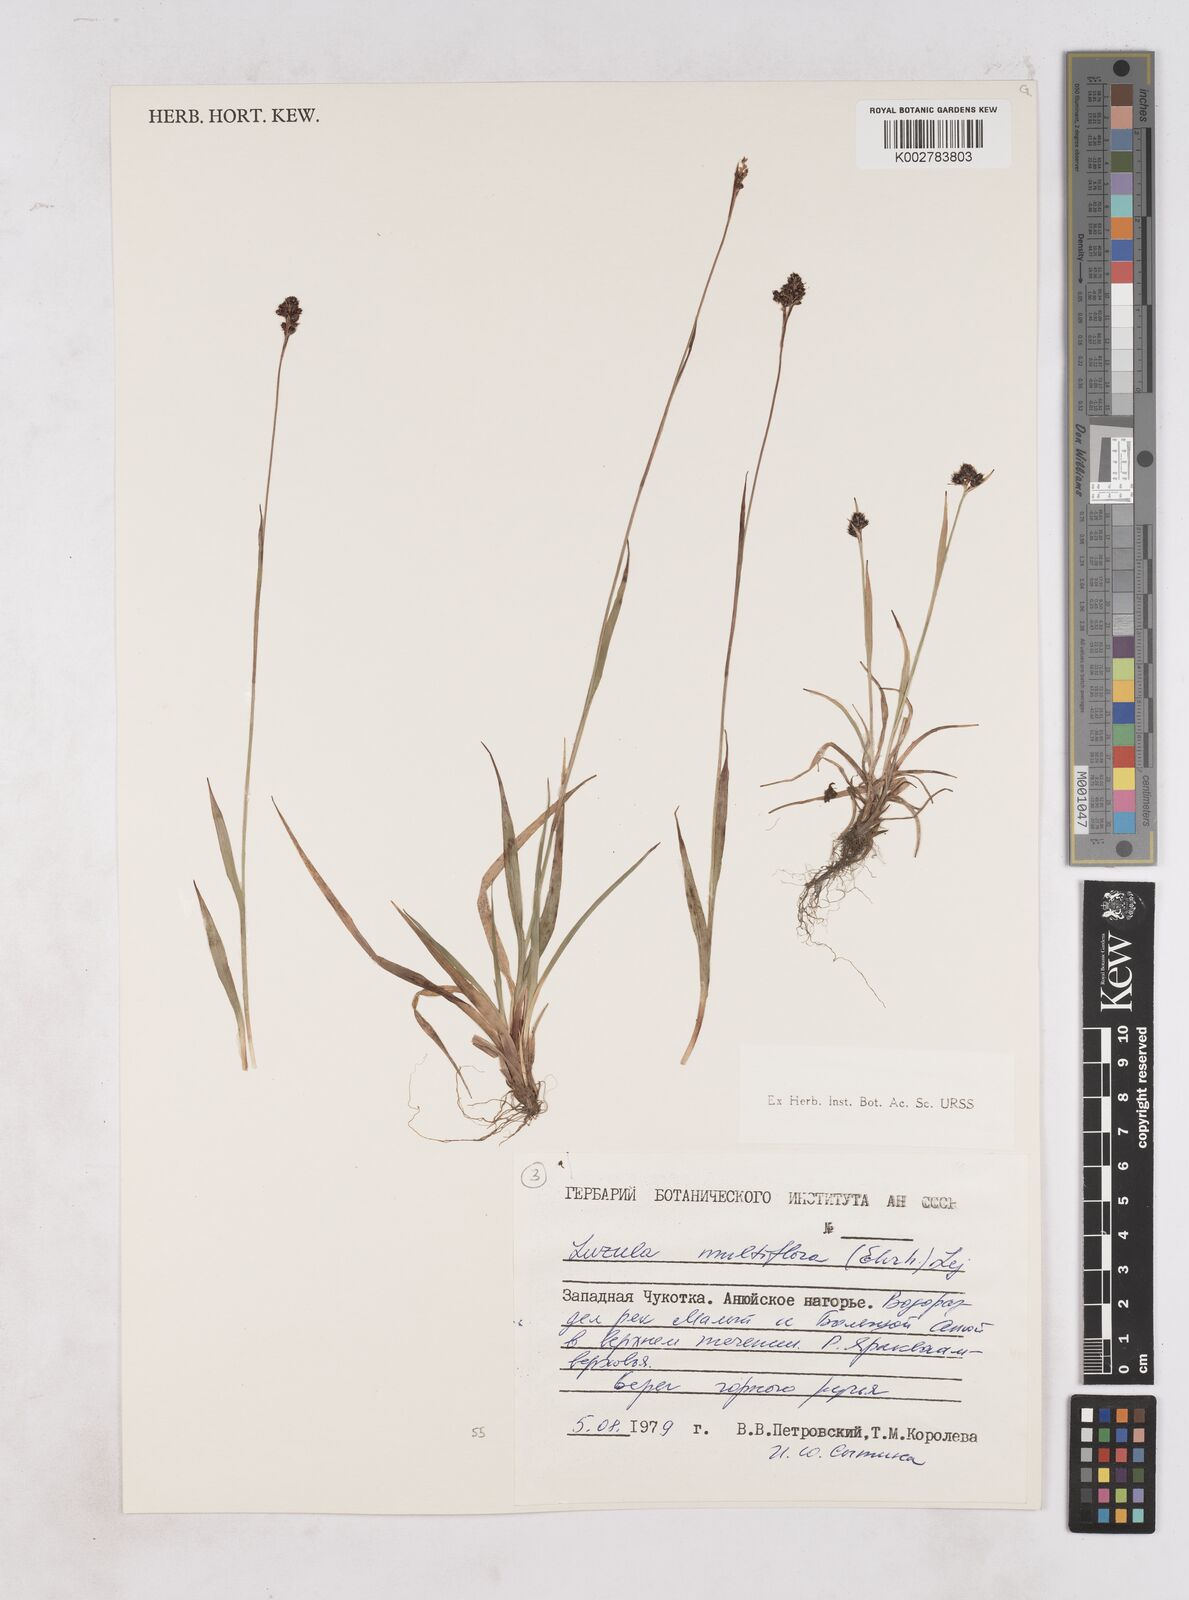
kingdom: Plantae
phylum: Tracheophyta
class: Liliopsida
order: Poales
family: Juncaceae
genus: Luzula
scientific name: Luzula campestris
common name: Field wood-rush
